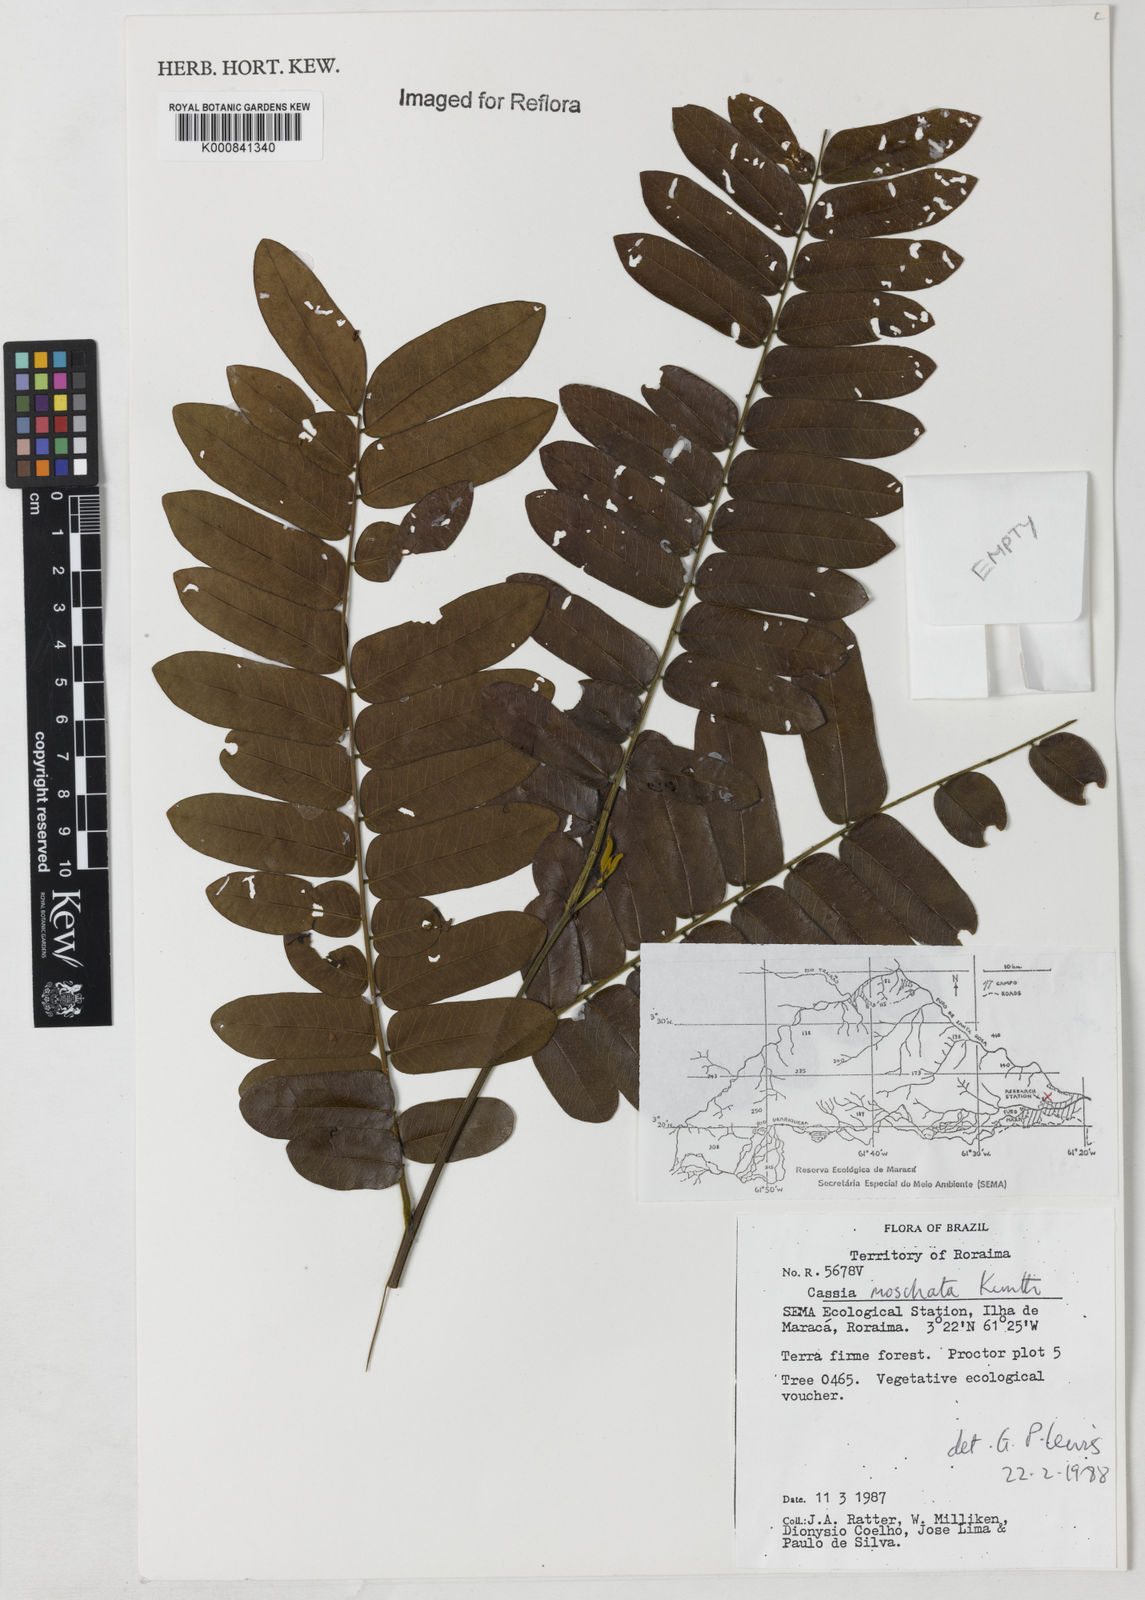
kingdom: Plantae
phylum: Tracheophyta
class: Magnoliopsida
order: Fabales
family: Fabaceae
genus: Cassia
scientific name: Cassia moschata
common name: Bronze shower tree
